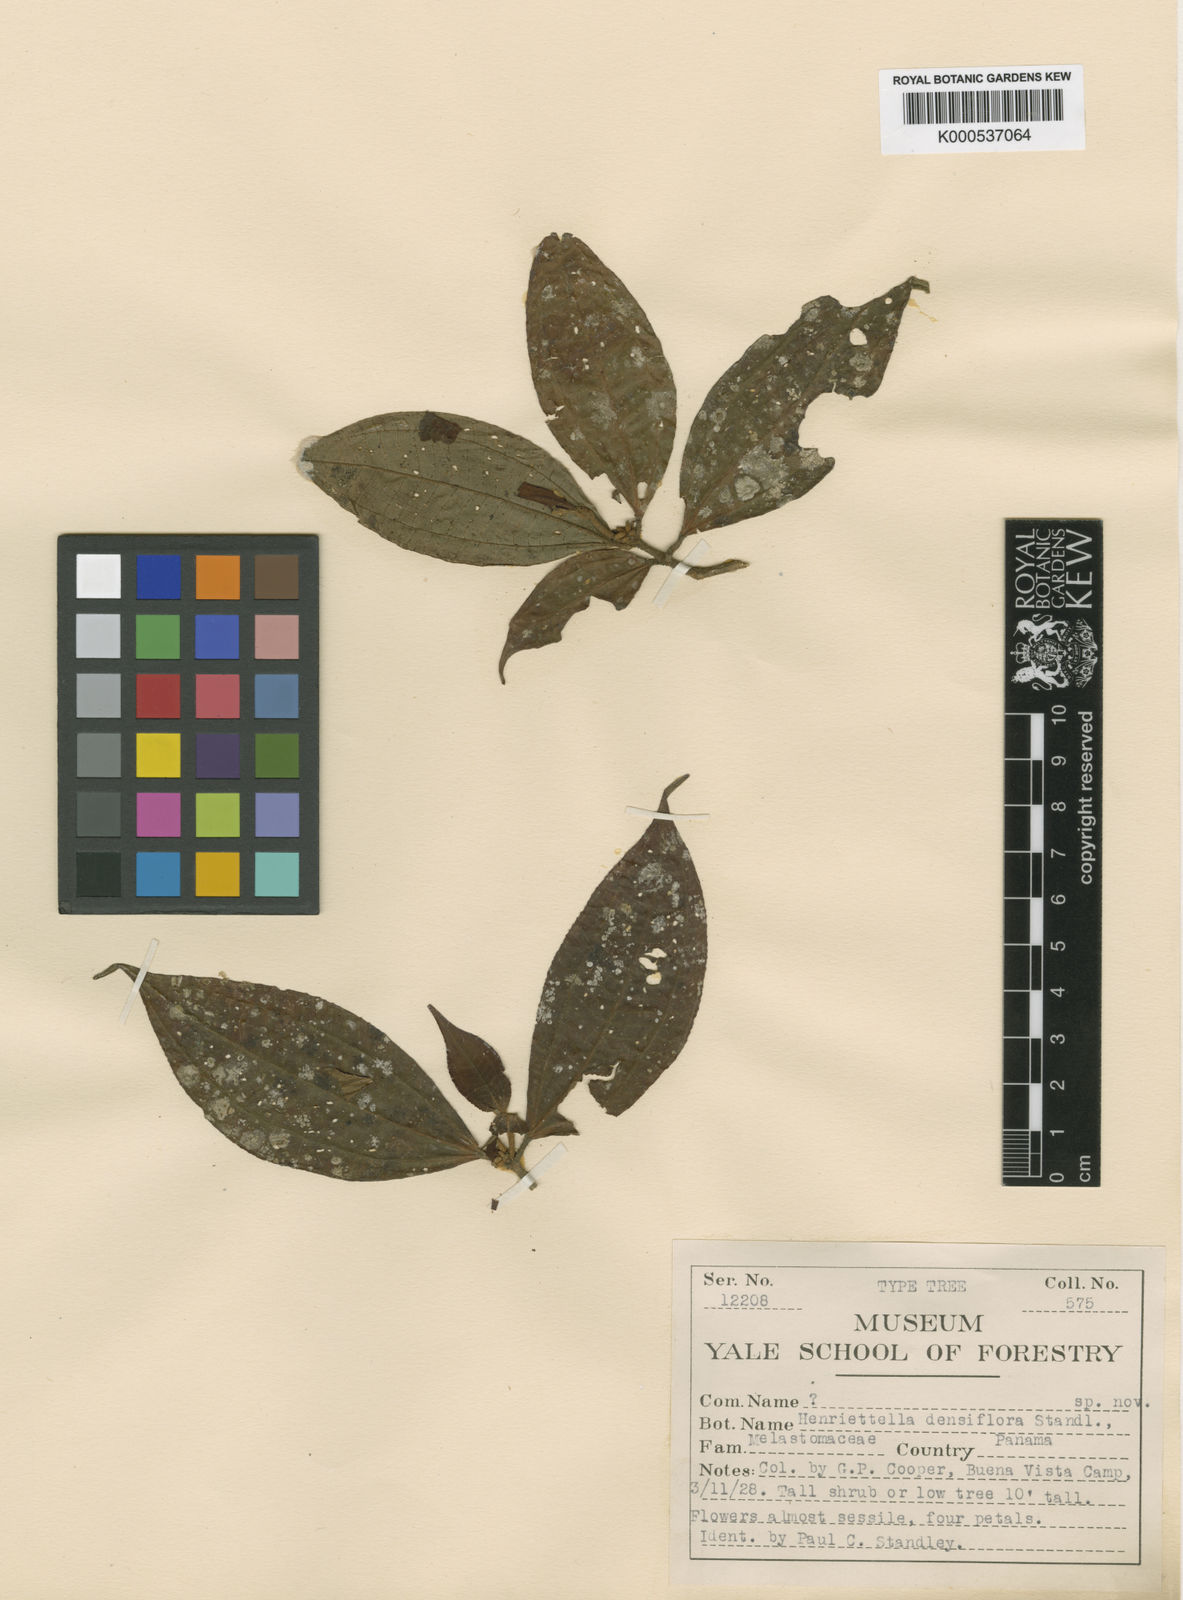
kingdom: Plantae
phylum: Tracheophyta
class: Magnoliopsida
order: Myrtales
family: Melastomataceae
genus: Miconia
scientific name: Miconia approximata
